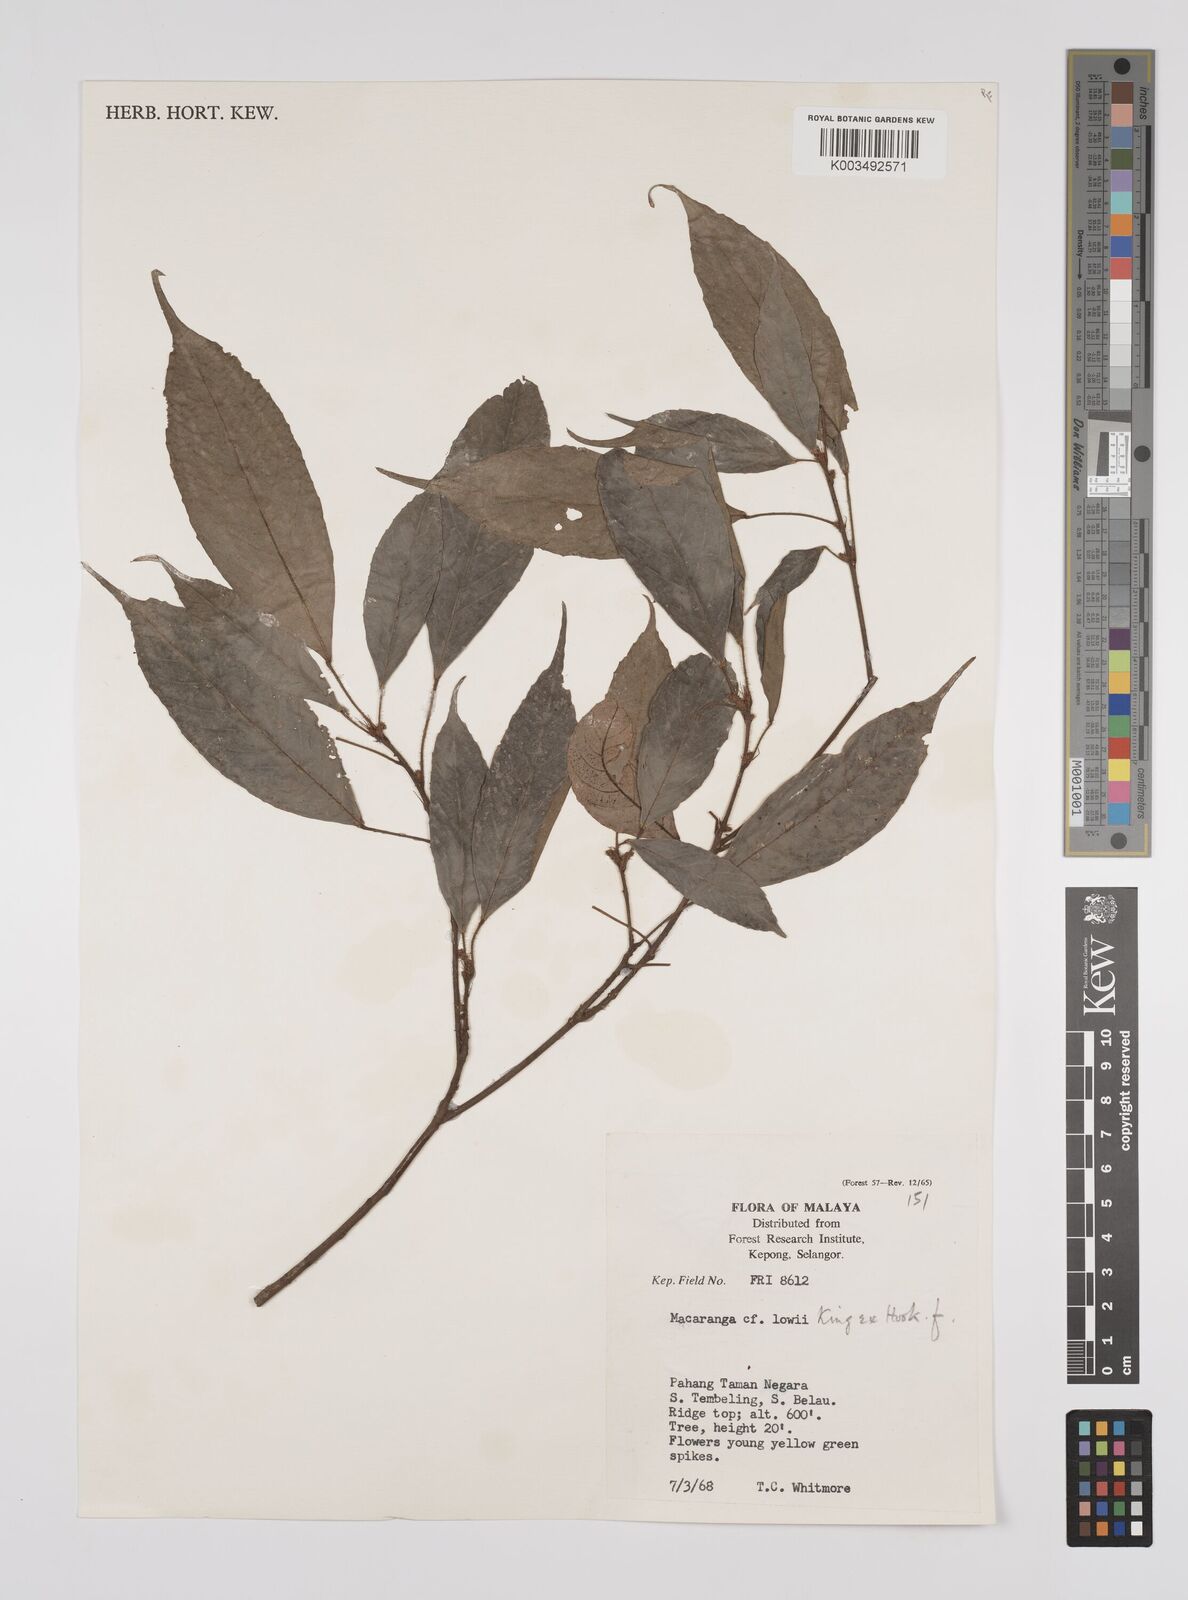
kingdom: Plantae
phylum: Tracheophyta
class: Magnoliopsida
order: Malpighiales
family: Euphorbiaceae
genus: Macaranga
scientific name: Macaranga lowii
